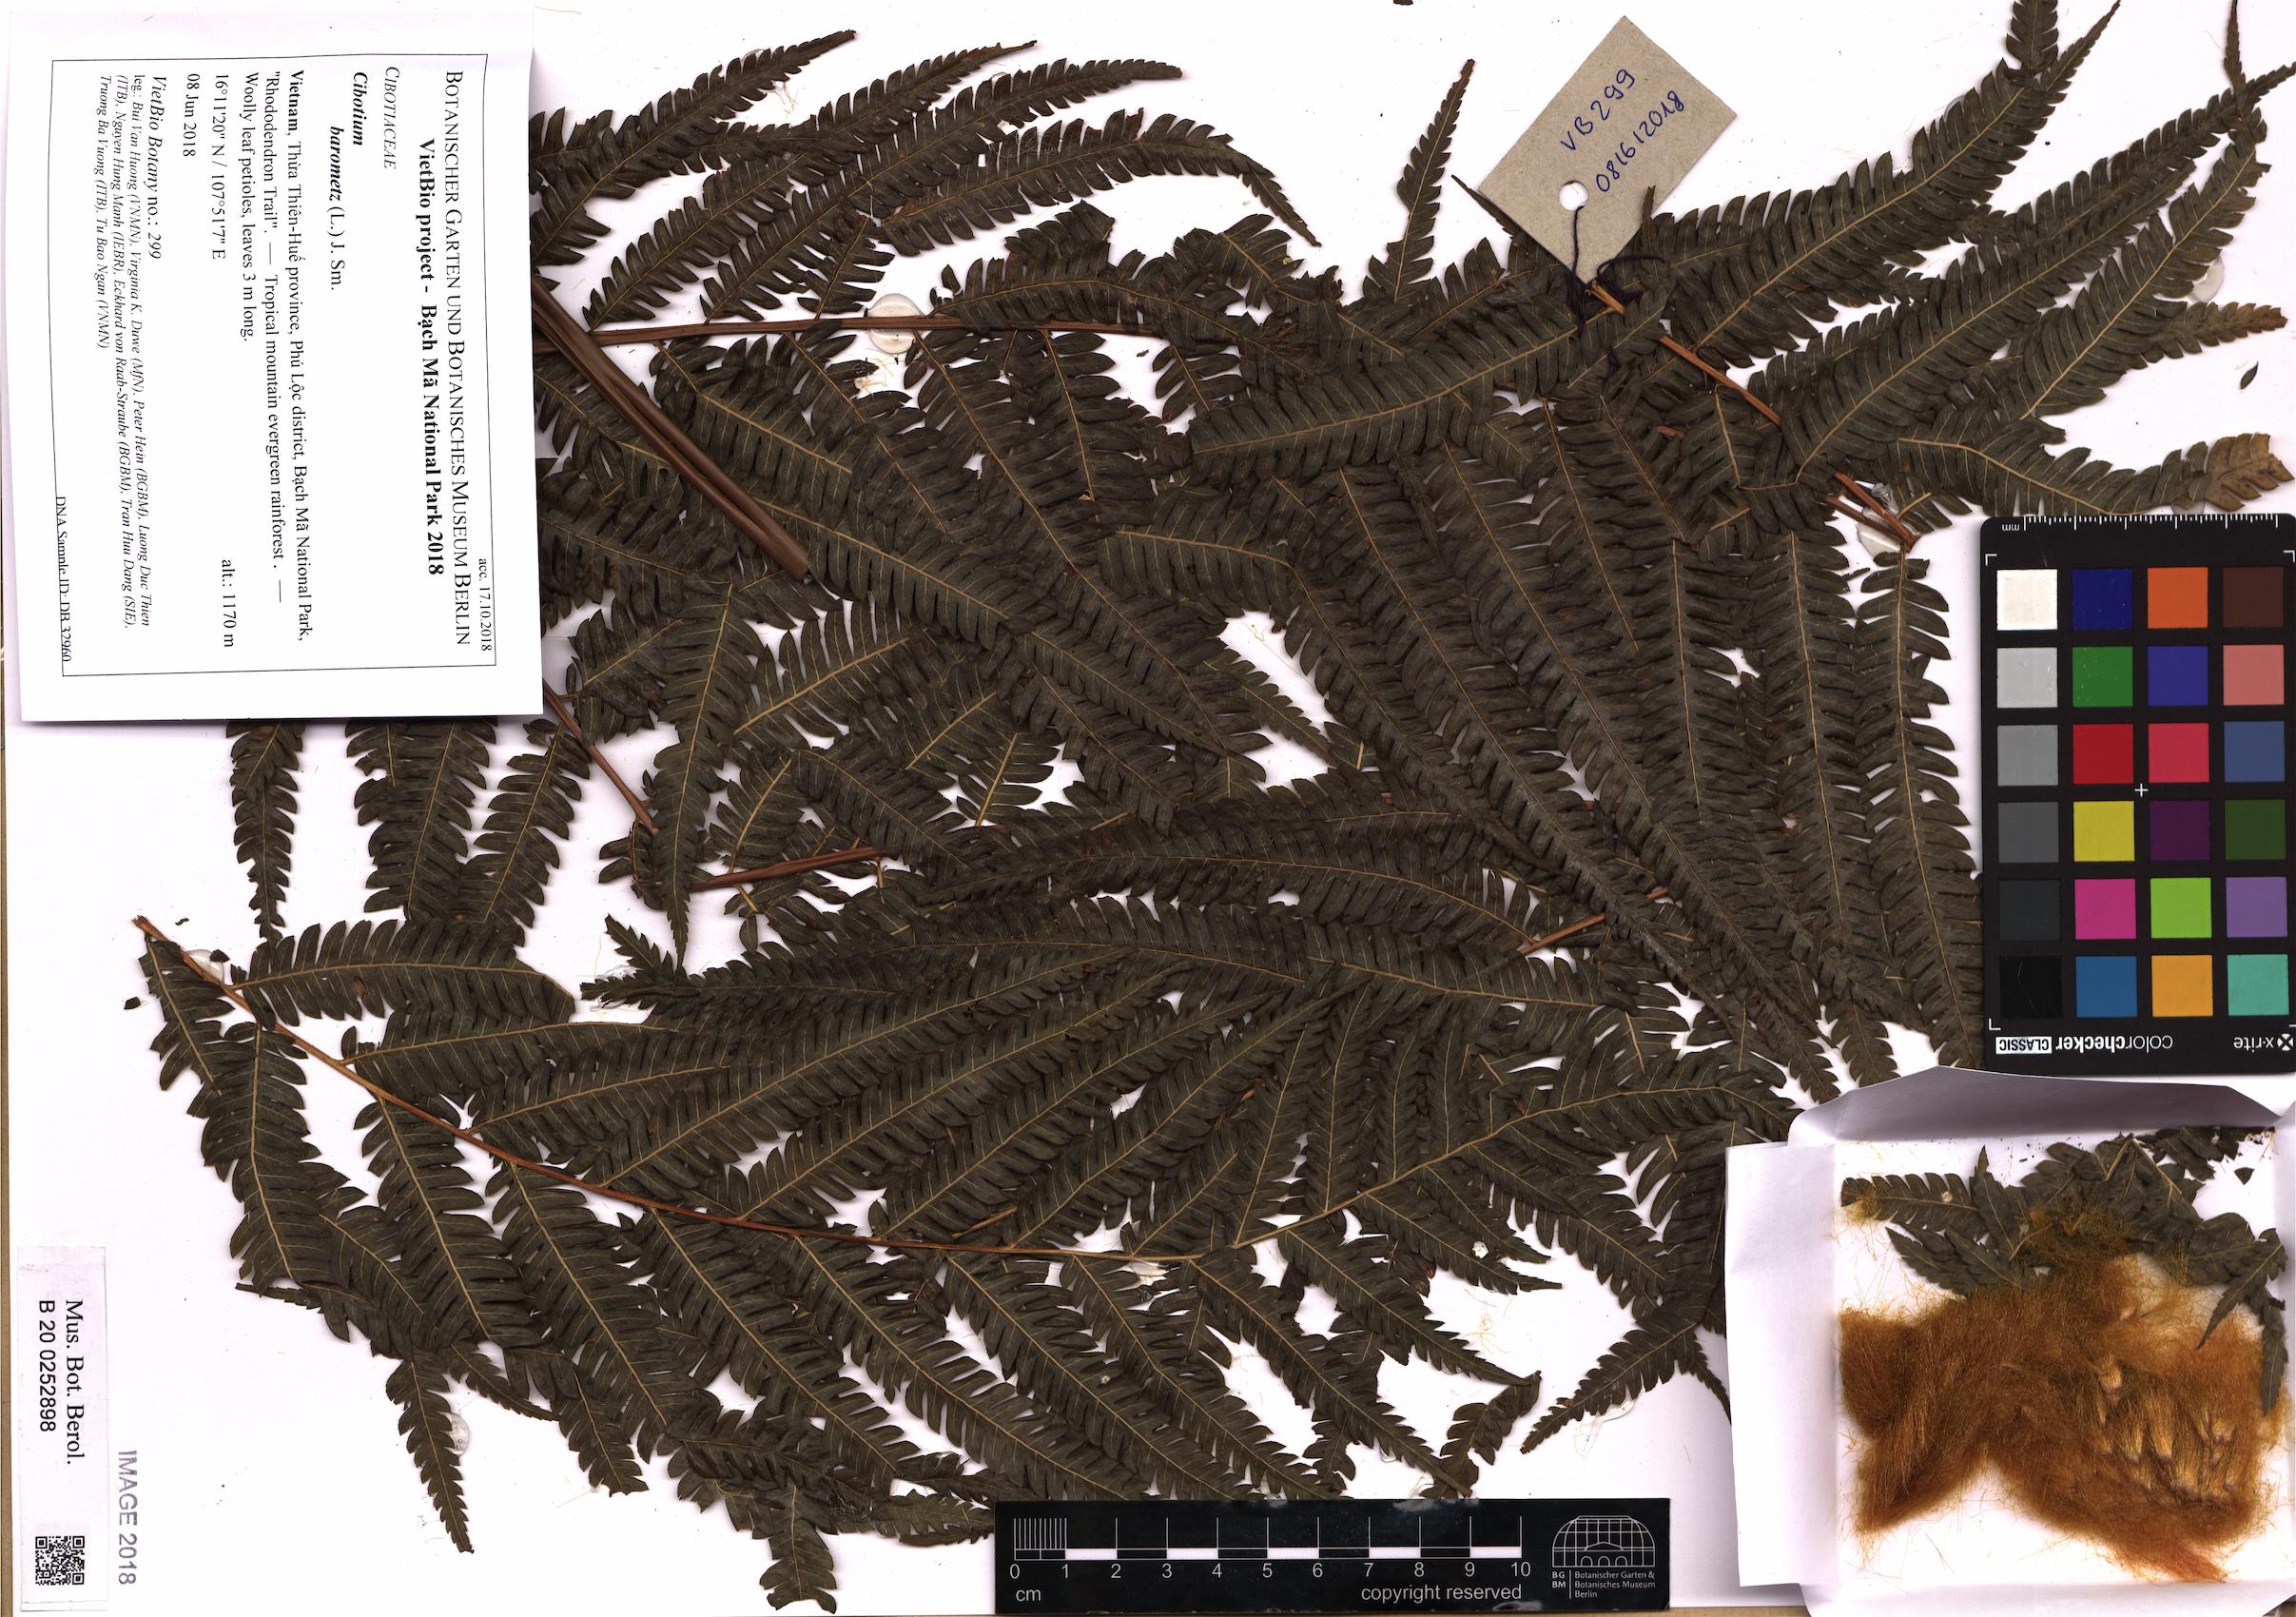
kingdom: Plantae
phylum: Tracheophyta
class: Polypodiopsida
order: Cyatheales
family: Cibotiaceae
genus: Cibotium
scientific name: Cibotium barometz
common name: Scythian-lamb
